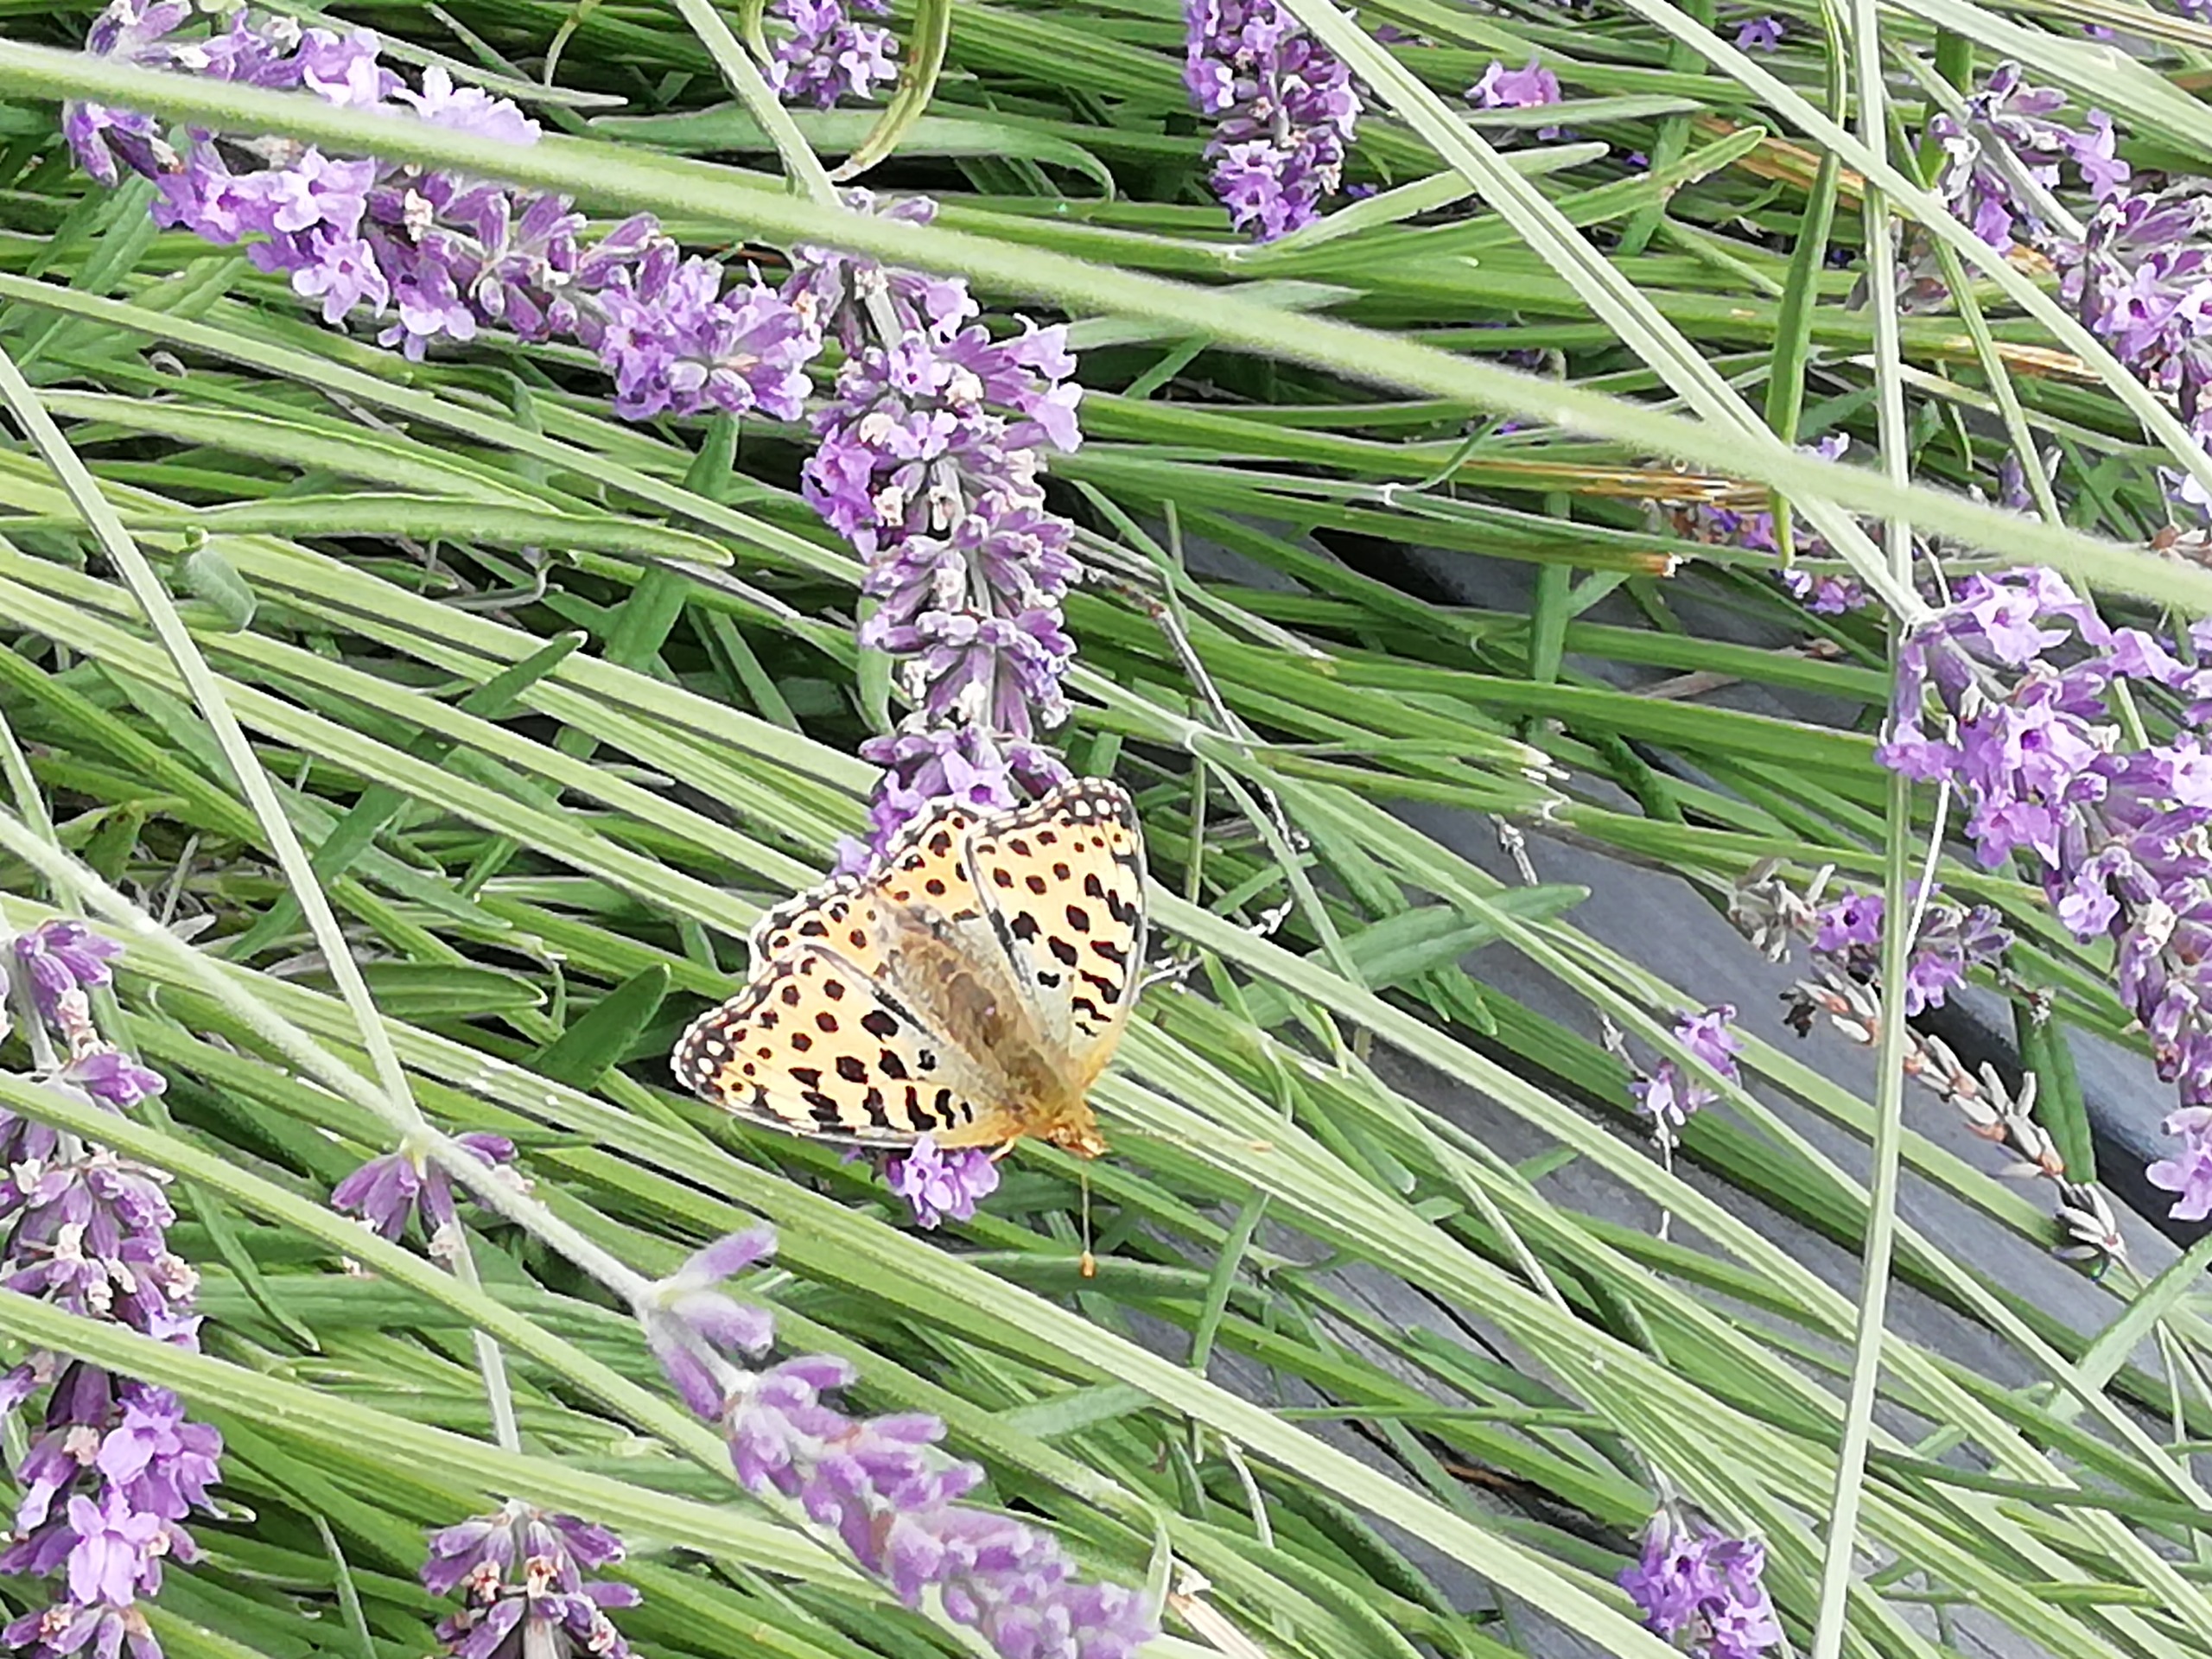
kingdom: Animalia
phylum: Arthropoda
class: Insecta
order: Lepidoptera
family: Nymphalidae
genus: Issoria
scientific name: Issoria lathonia
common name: Storplettet perlemorsommerfugl
